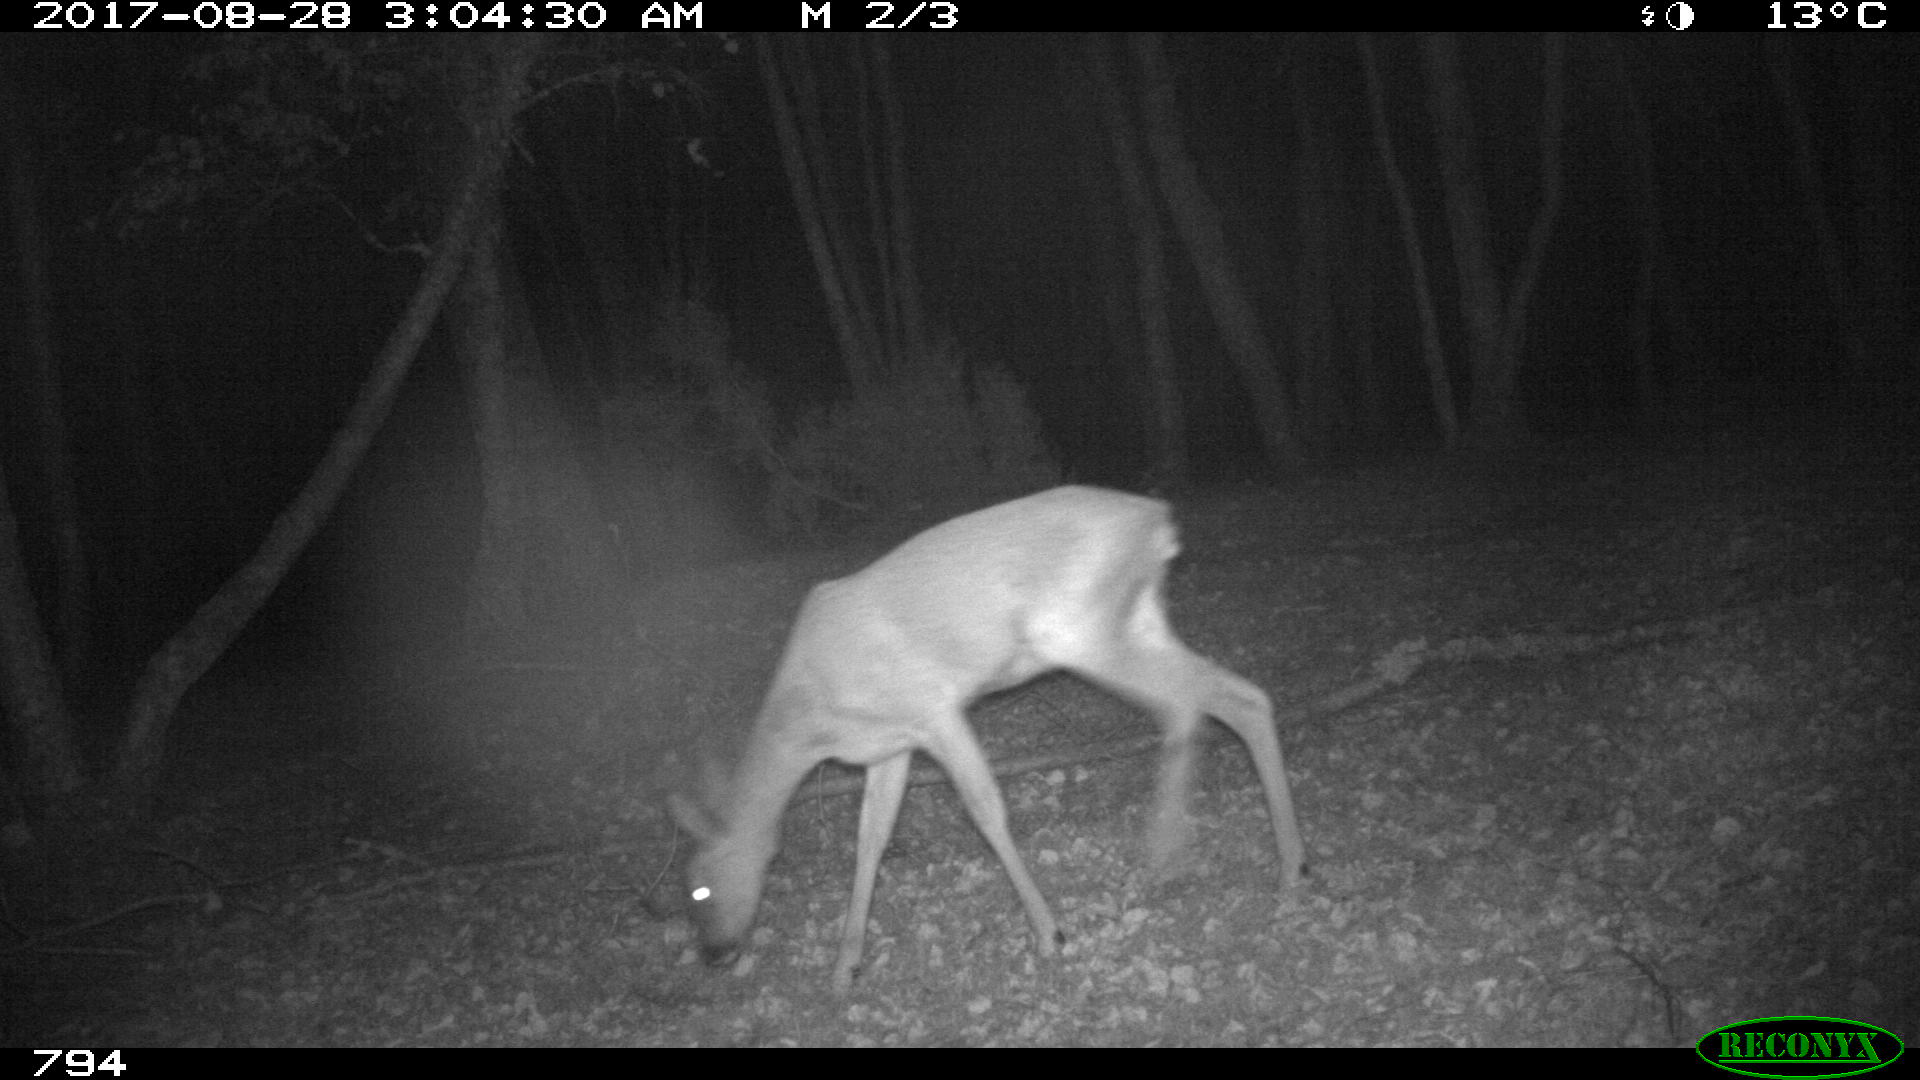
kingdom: Animalia
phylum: Chordata
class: Mammalia
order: Artiodactyla
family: Cervidae
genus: Capreolus
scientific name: Capreolus capreolus
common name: Western roe deer
